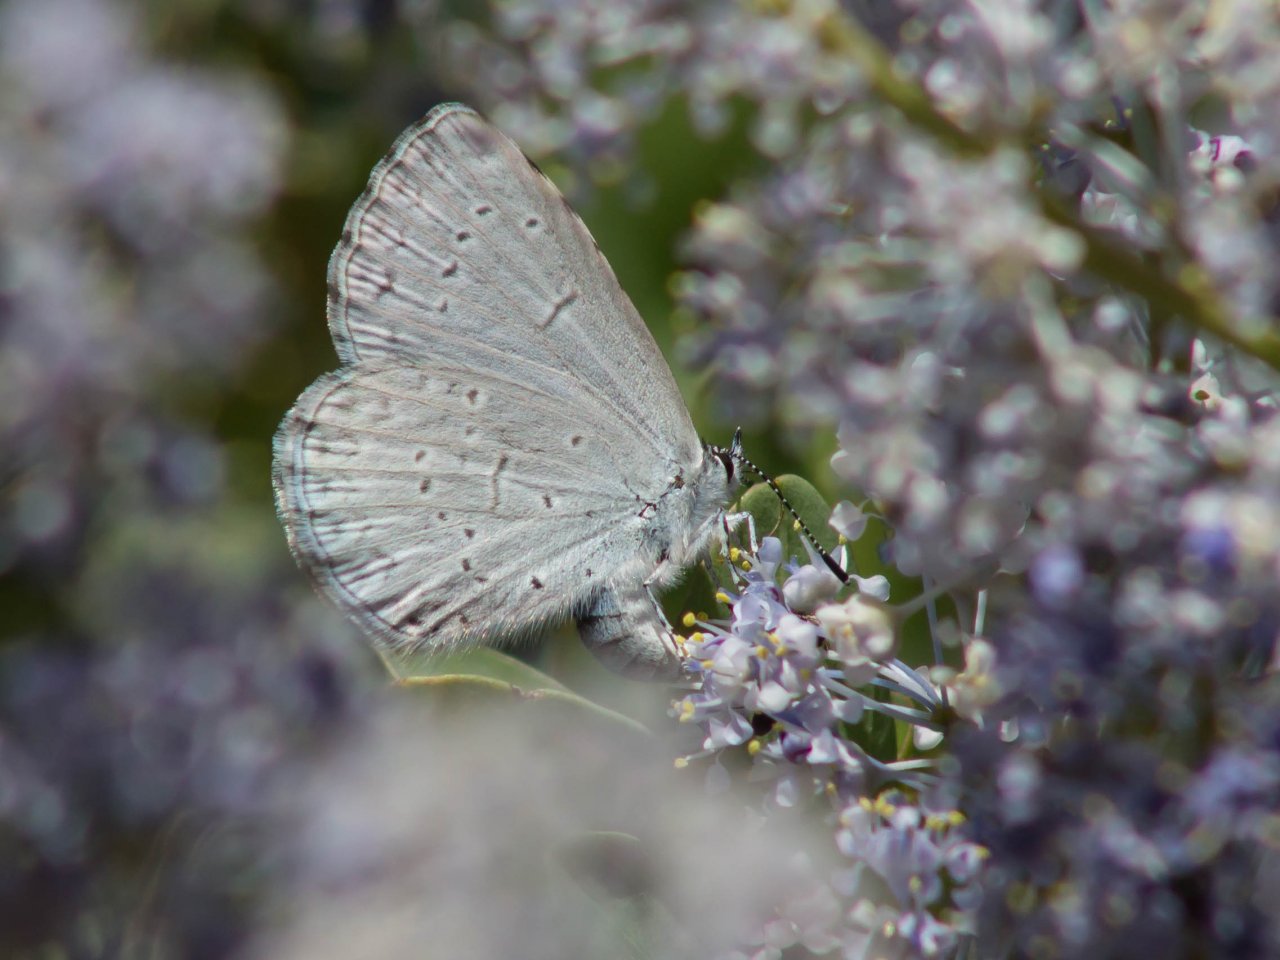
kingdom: Animalia
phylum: Arthropoda
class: Insecta
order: Lepidoptera
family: Lycaenidae
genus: Celastrina
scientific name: Celastrina ladon
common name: Echo Azure
